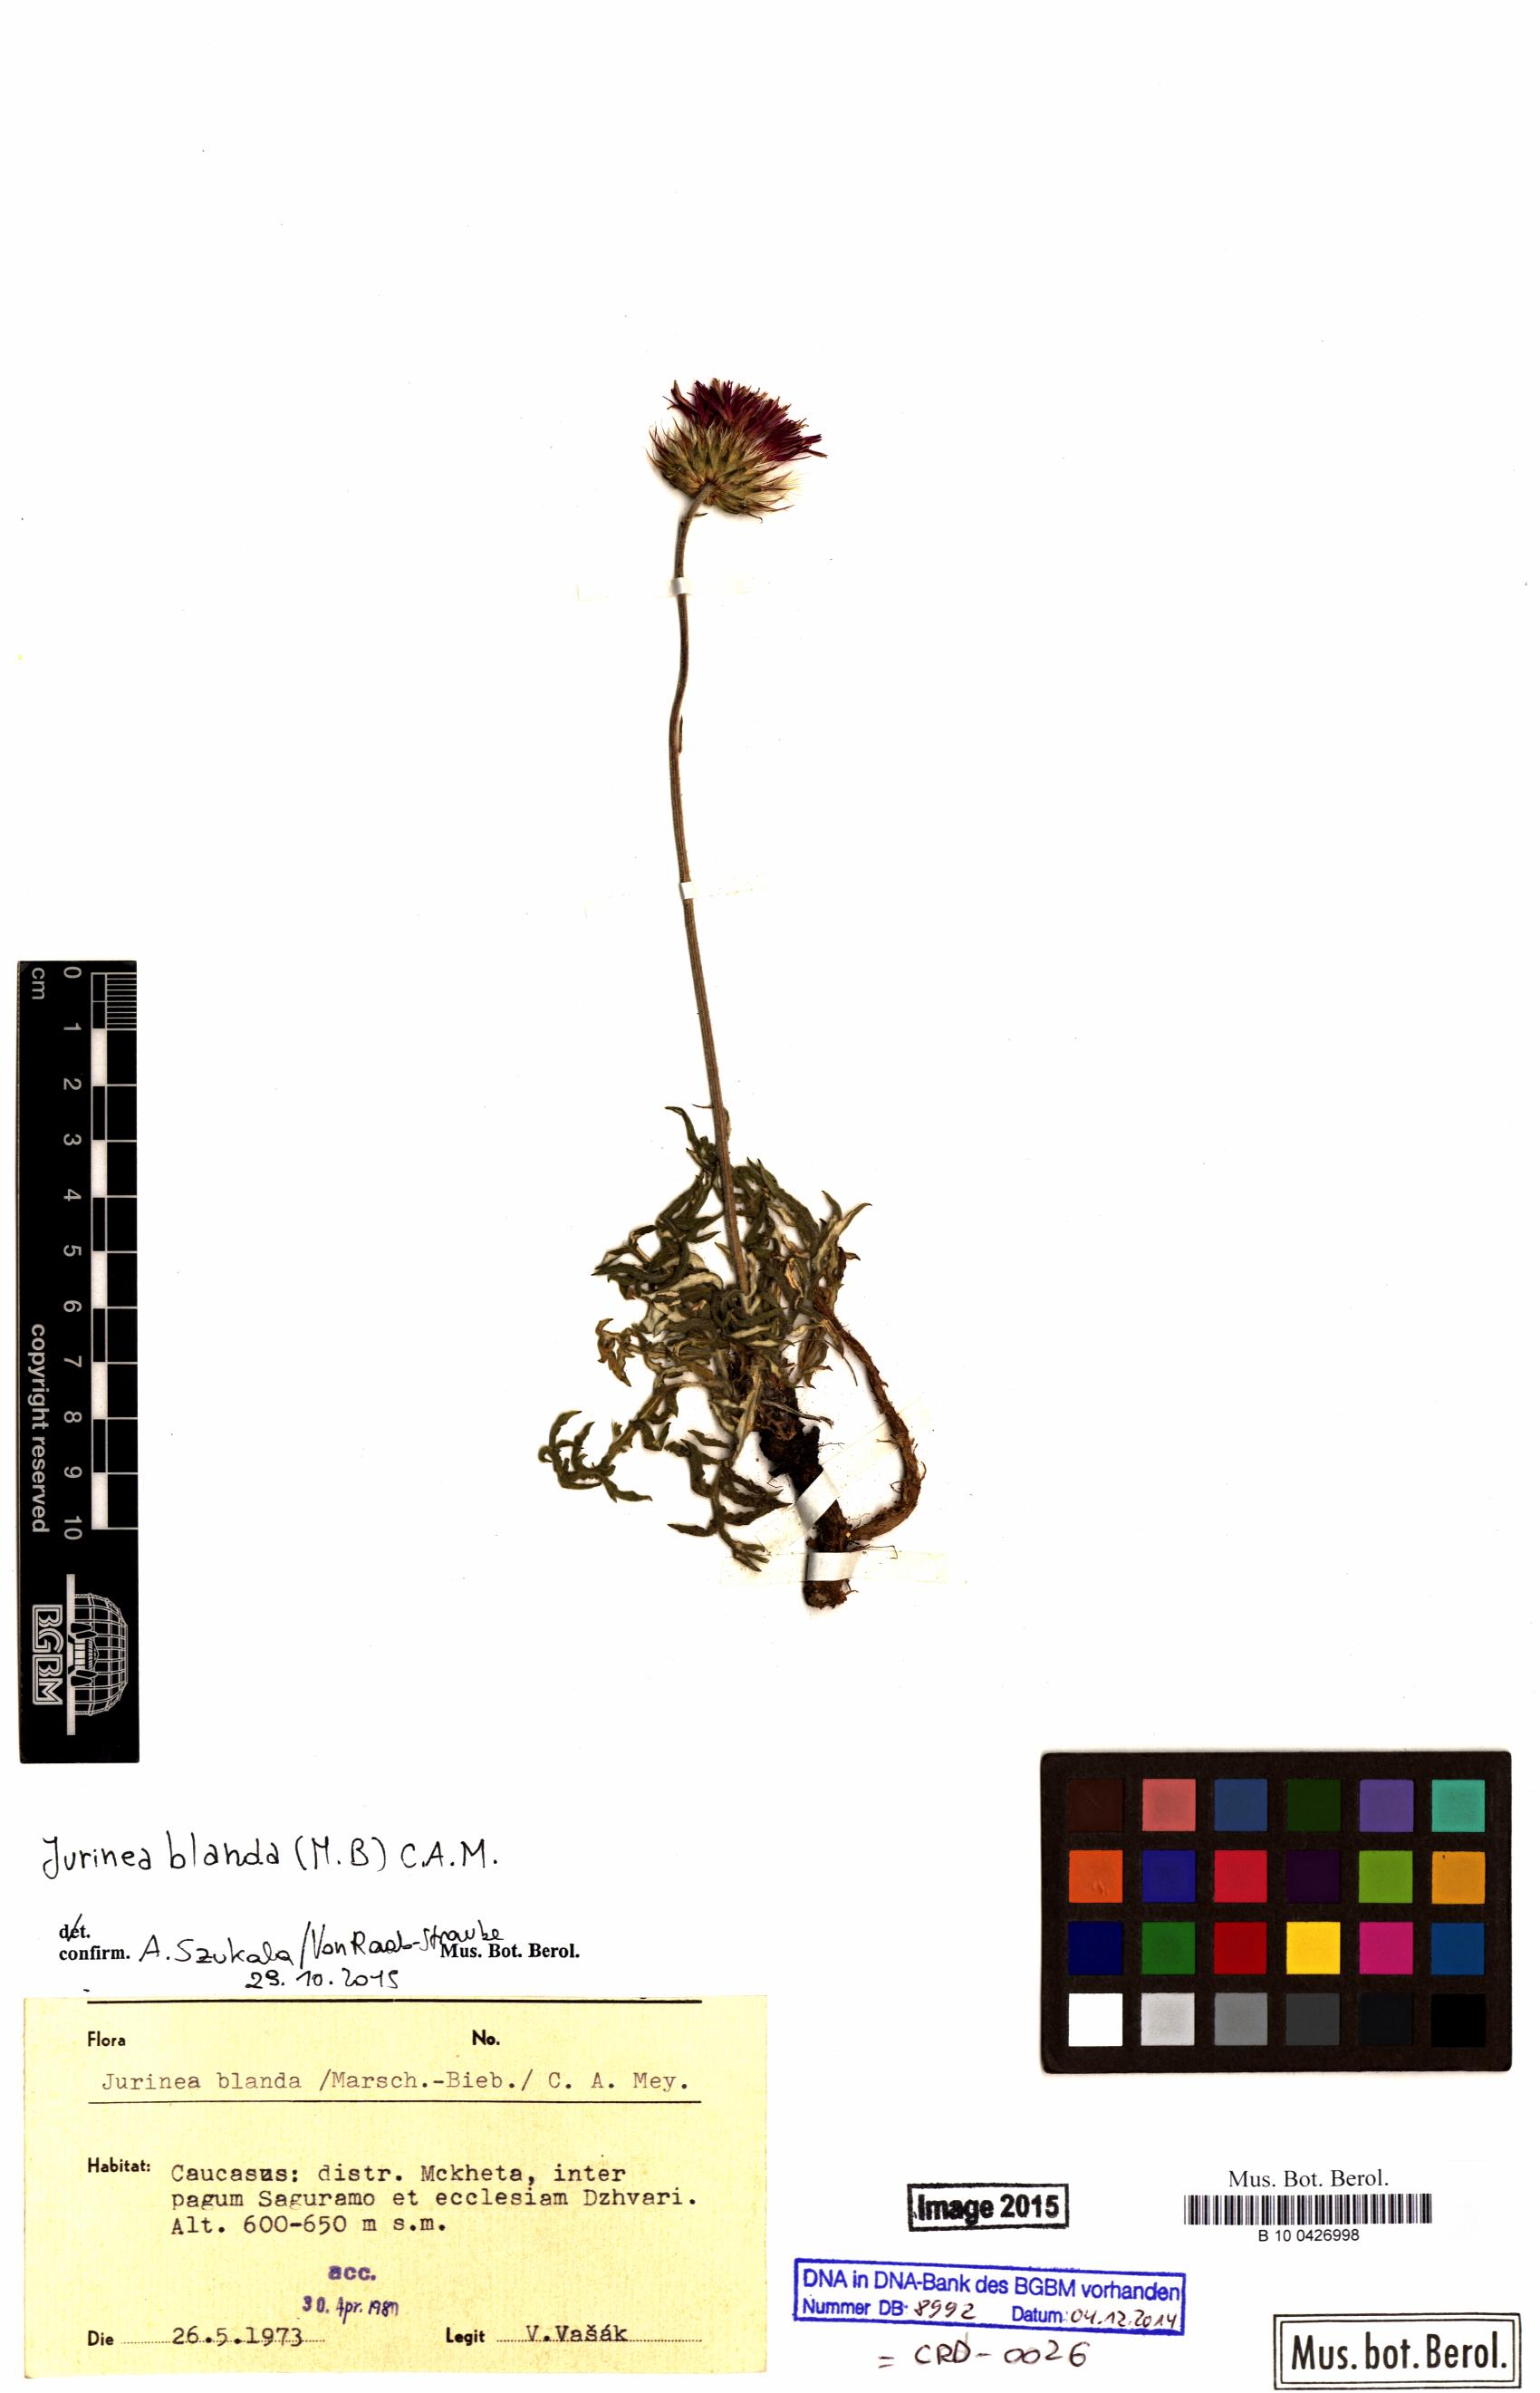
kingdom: Plantae
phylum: Tracheophyta
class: Magnoliopsida
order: Asterales
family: Asteraceae
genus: Jurinea
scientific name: Jurinea blanda
